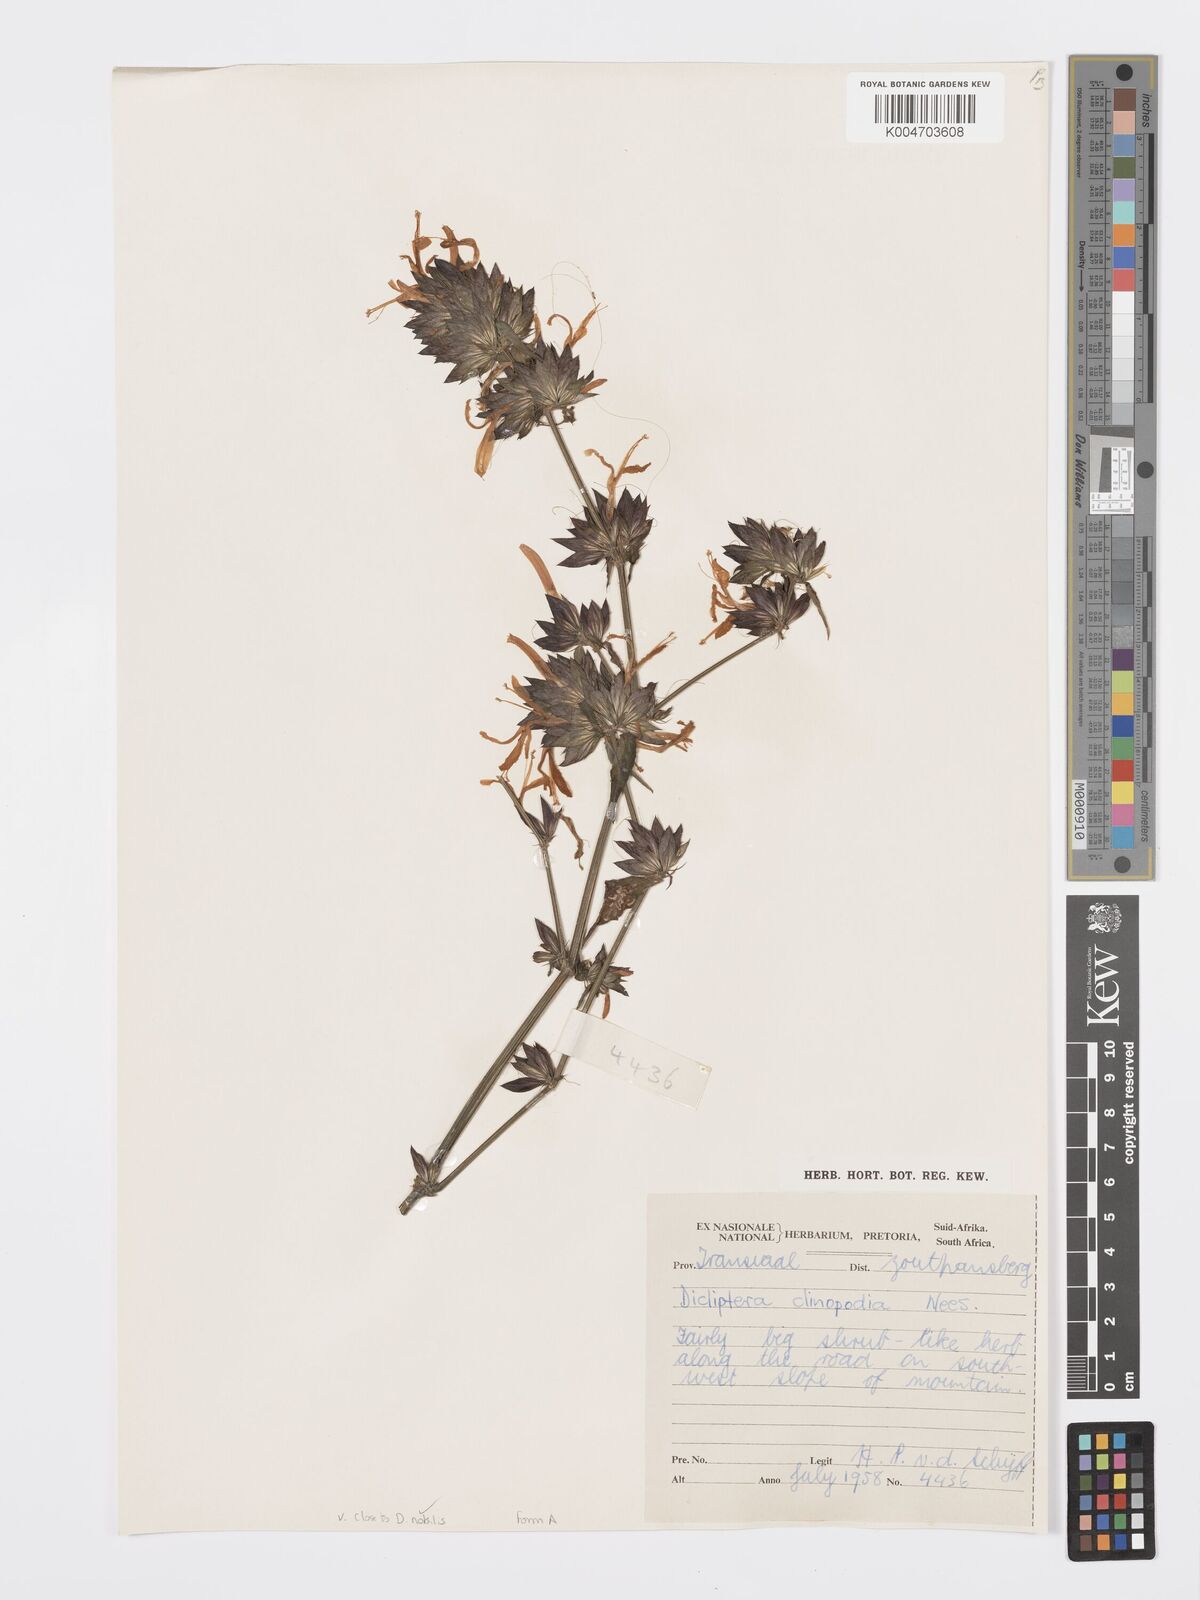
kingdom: Plantae
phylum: Tracheophyta
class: Magnoliopsida
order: Lamiales
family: Acanthaceae
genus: Dicliptera
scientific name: Dicliptera clinopodia
